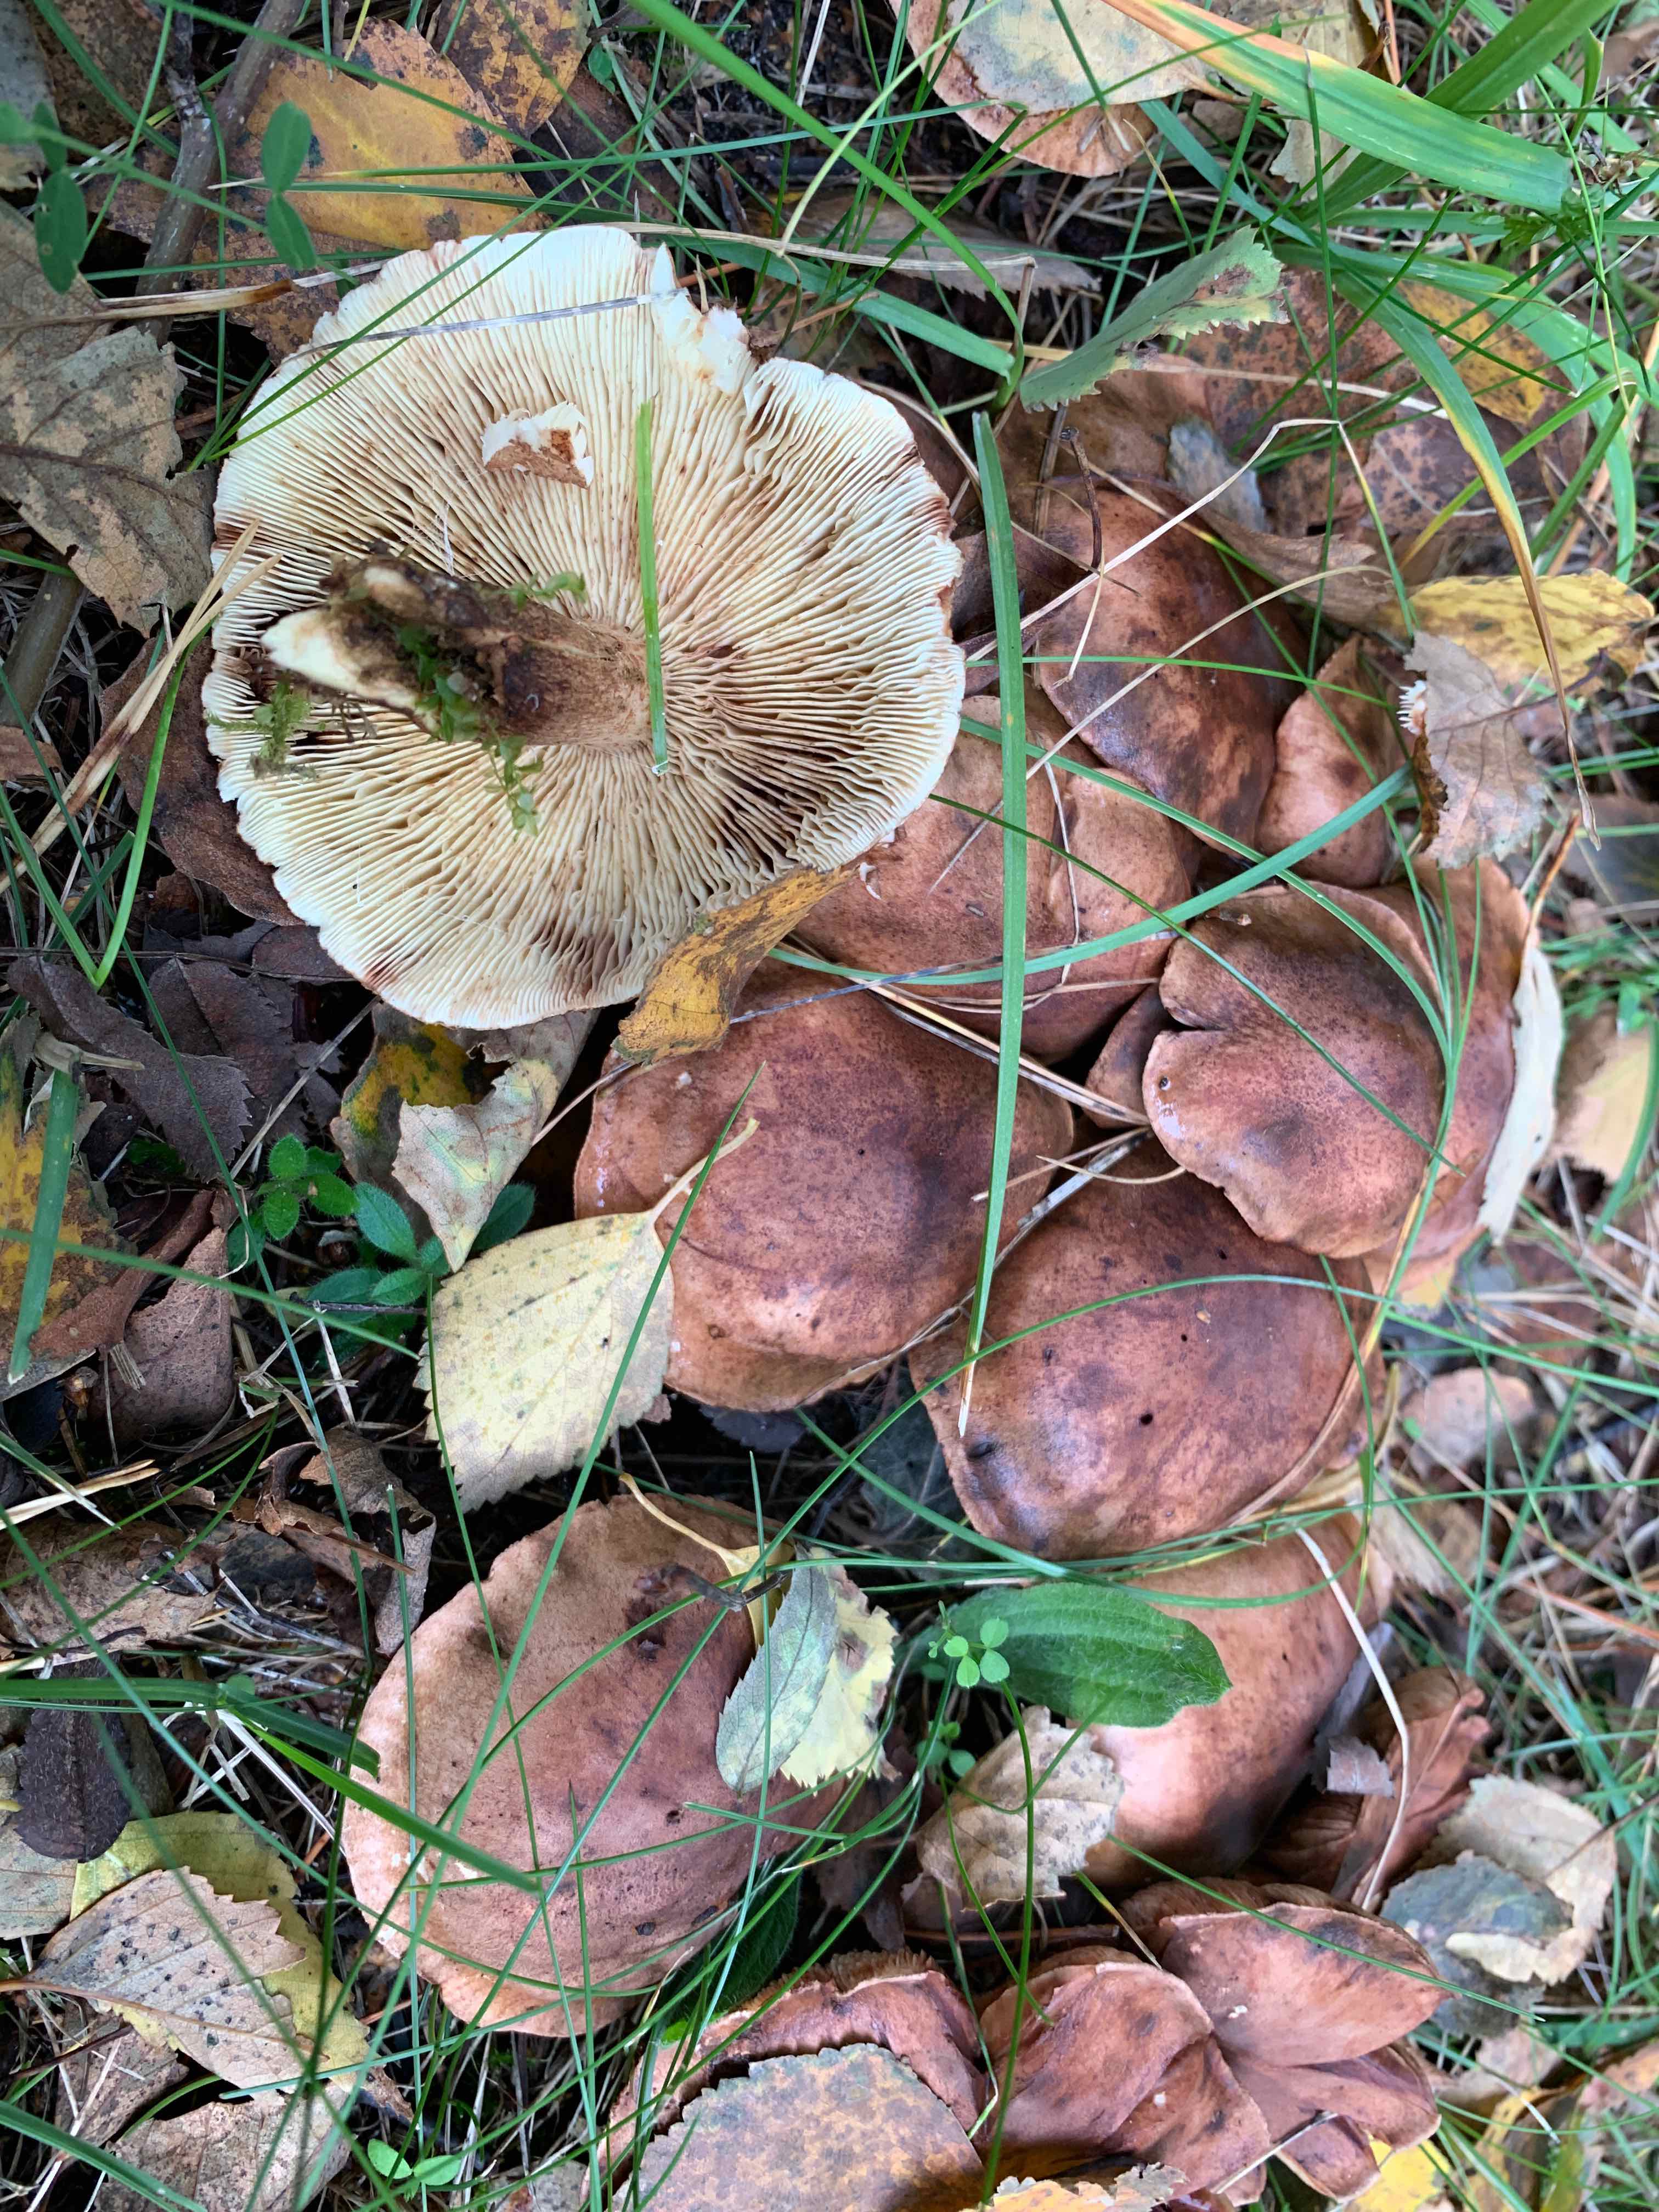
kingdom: Fungi
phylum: Basidiomycota
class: Agaricomycetes
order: Agaricales
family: Tricholomataceae
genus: Tricholoma
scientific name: Tricholoma fulvum
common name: birke-ridderhat
